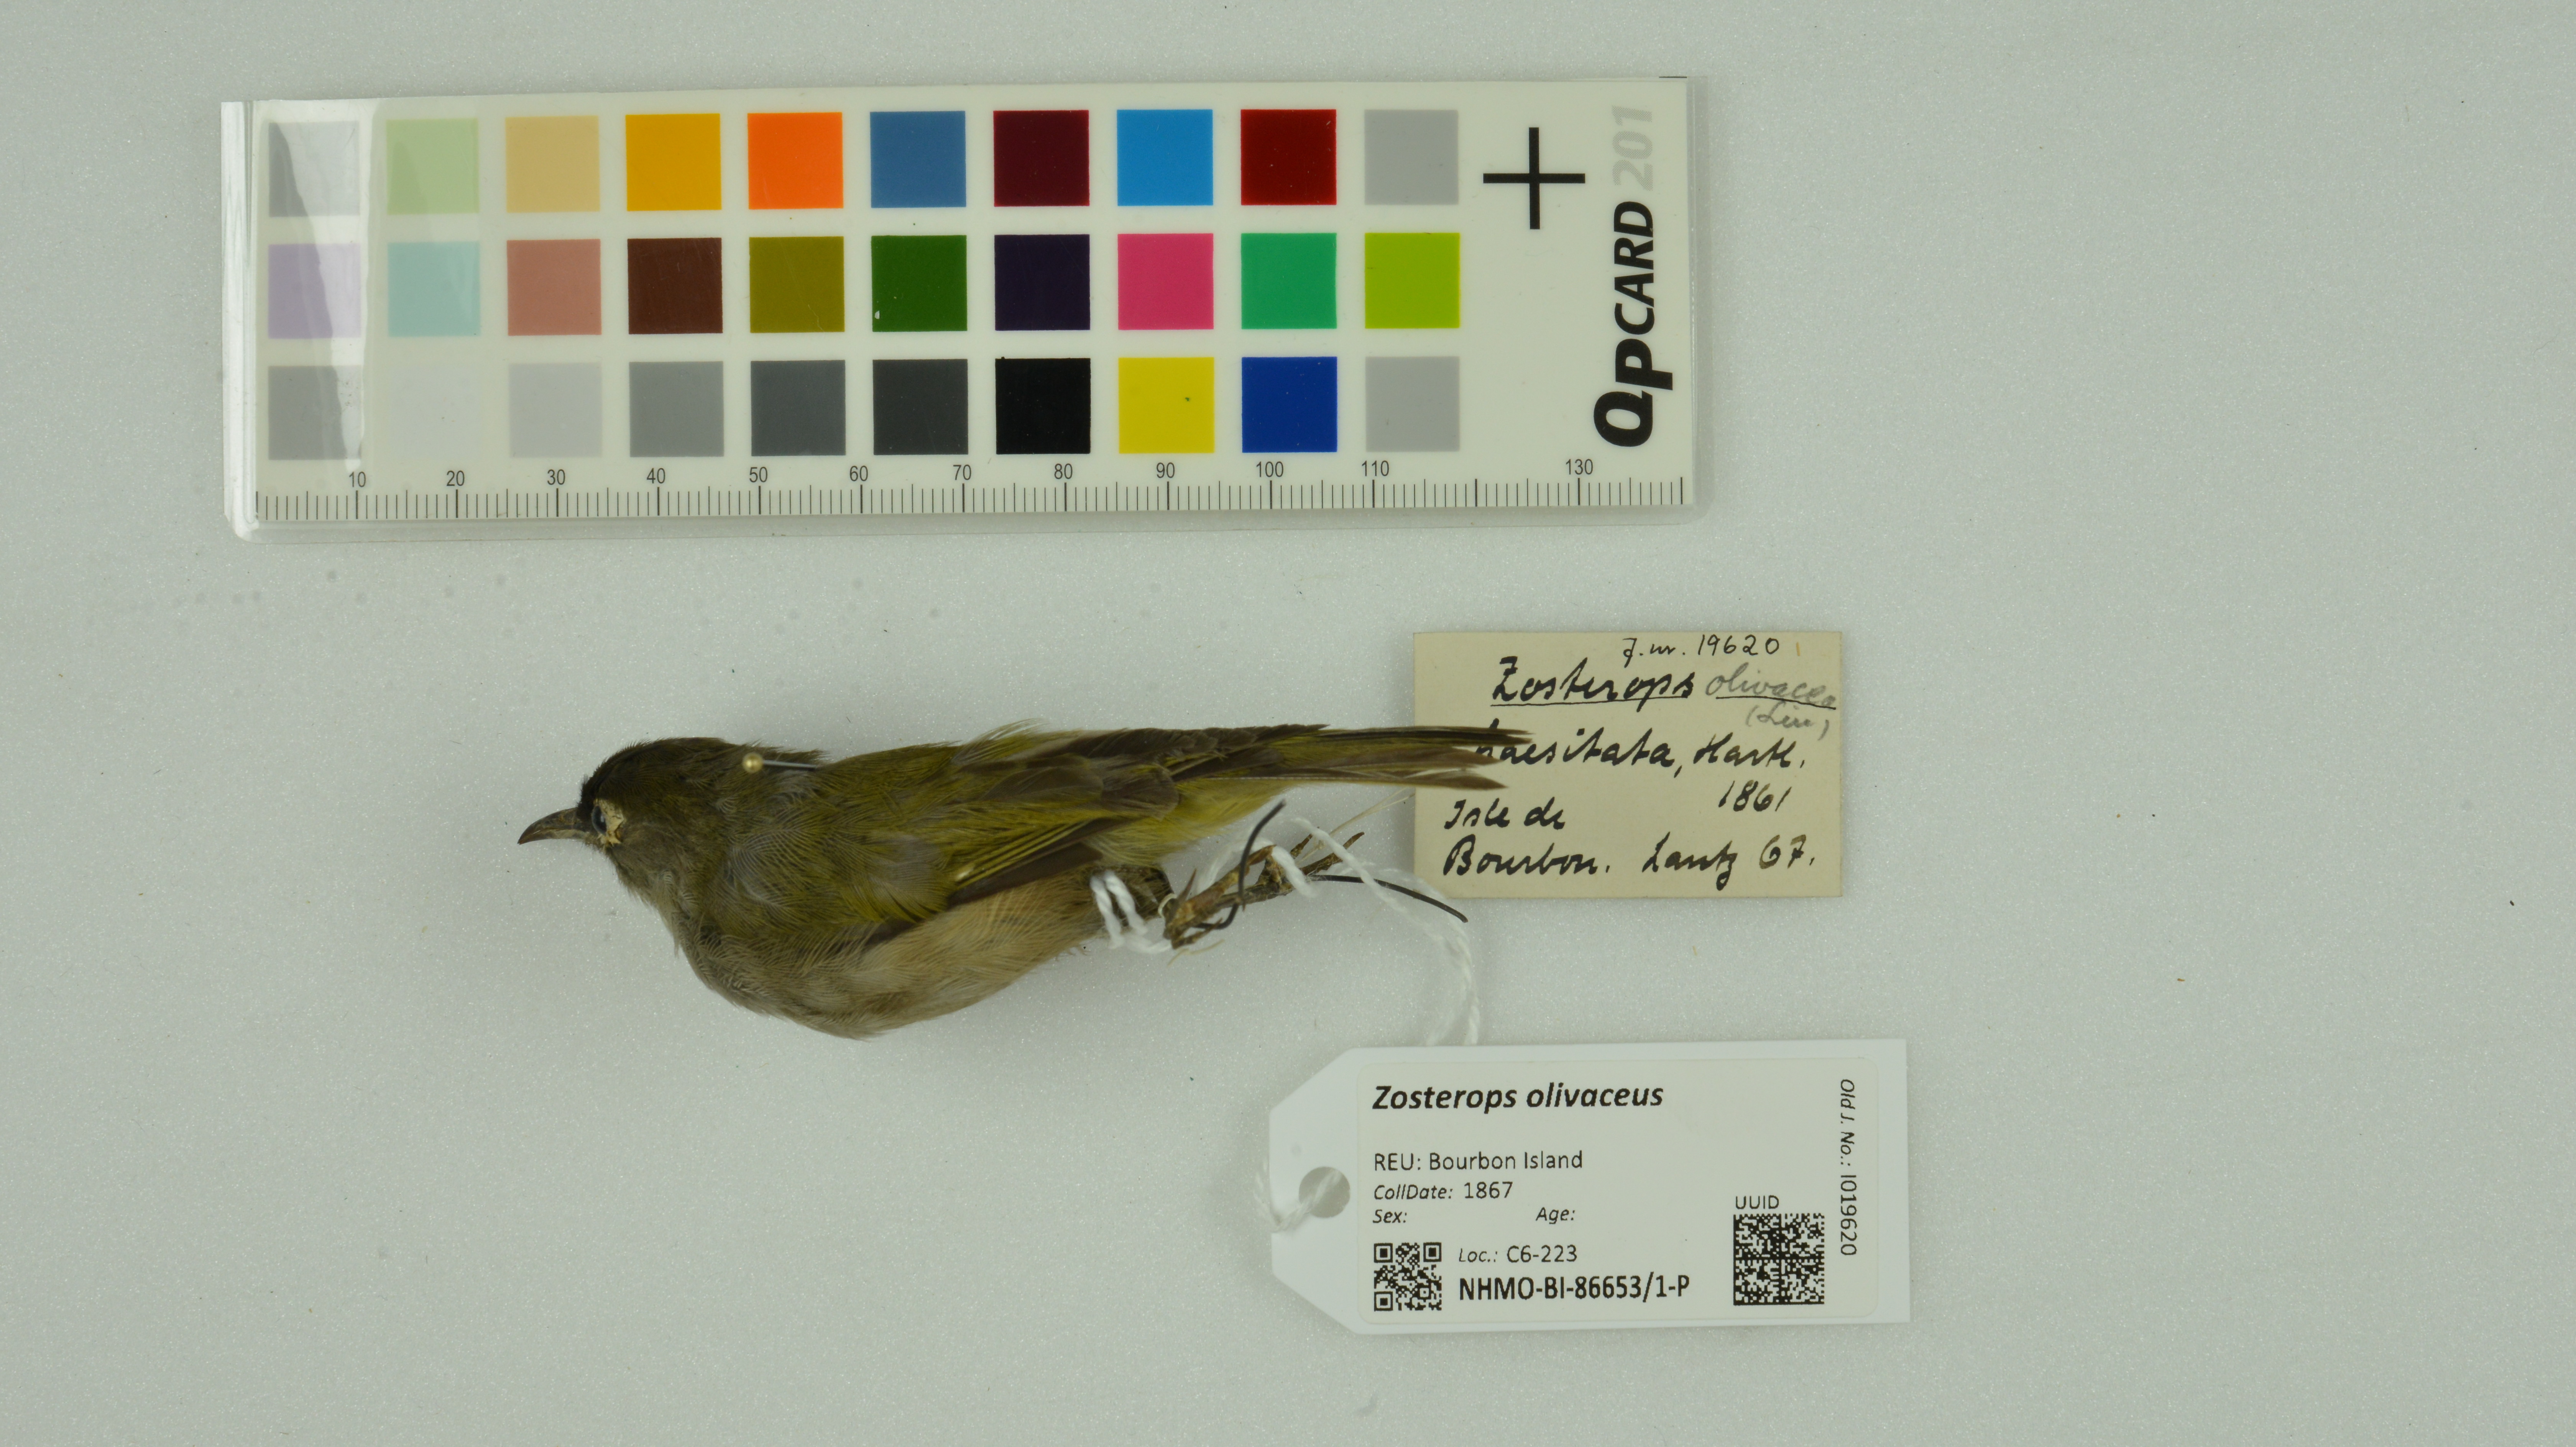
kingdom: Animalia
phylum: Chordata
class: Aves
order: Passeriformes
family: Zosteropidae
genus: Zosterops
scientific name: Zosterops olivaceus
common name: Reunion olive white-eye
